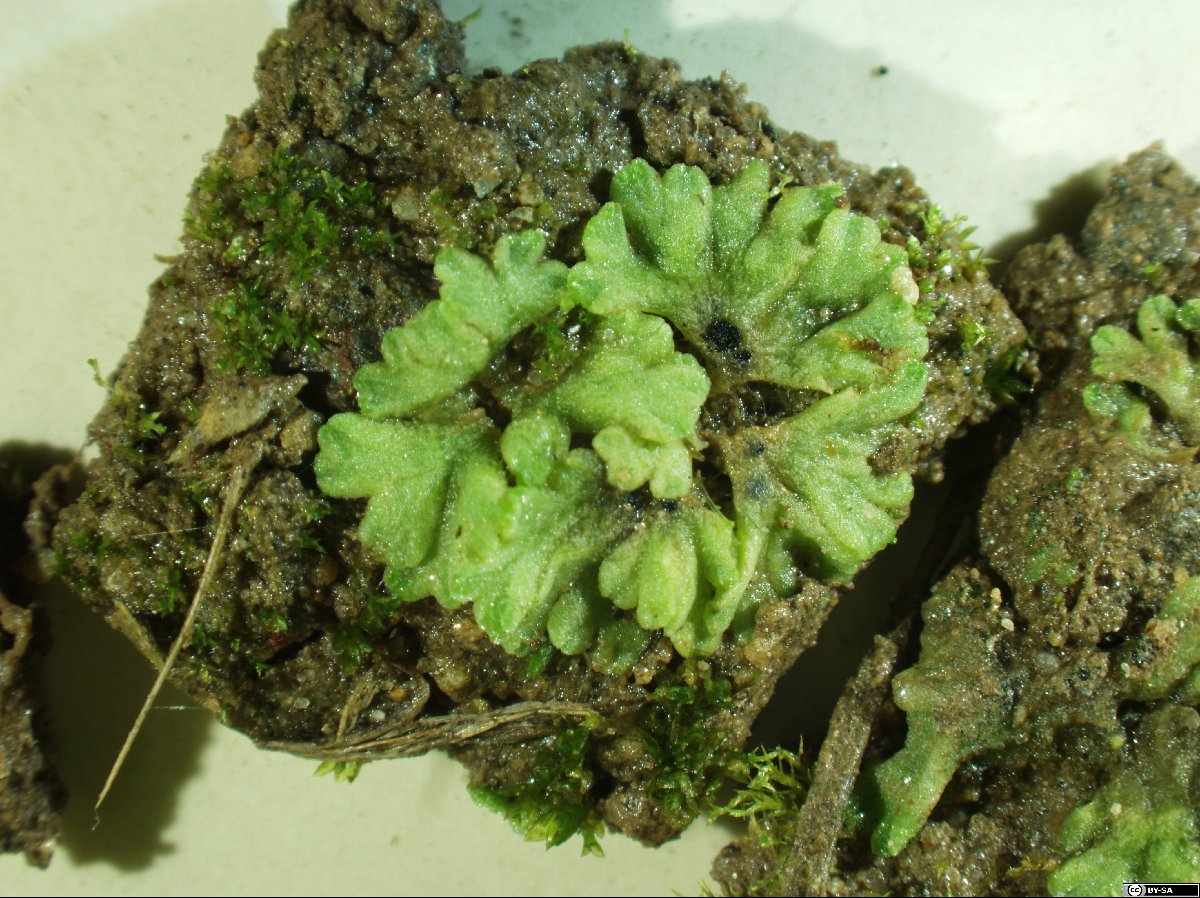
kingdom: Plantae
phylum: Marchantiophyta
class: Marchantiopsida
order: Marchantiales
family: Ricciaceae
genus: Riccia
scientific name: Riccia glauca
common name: Glaucous crystalwort
